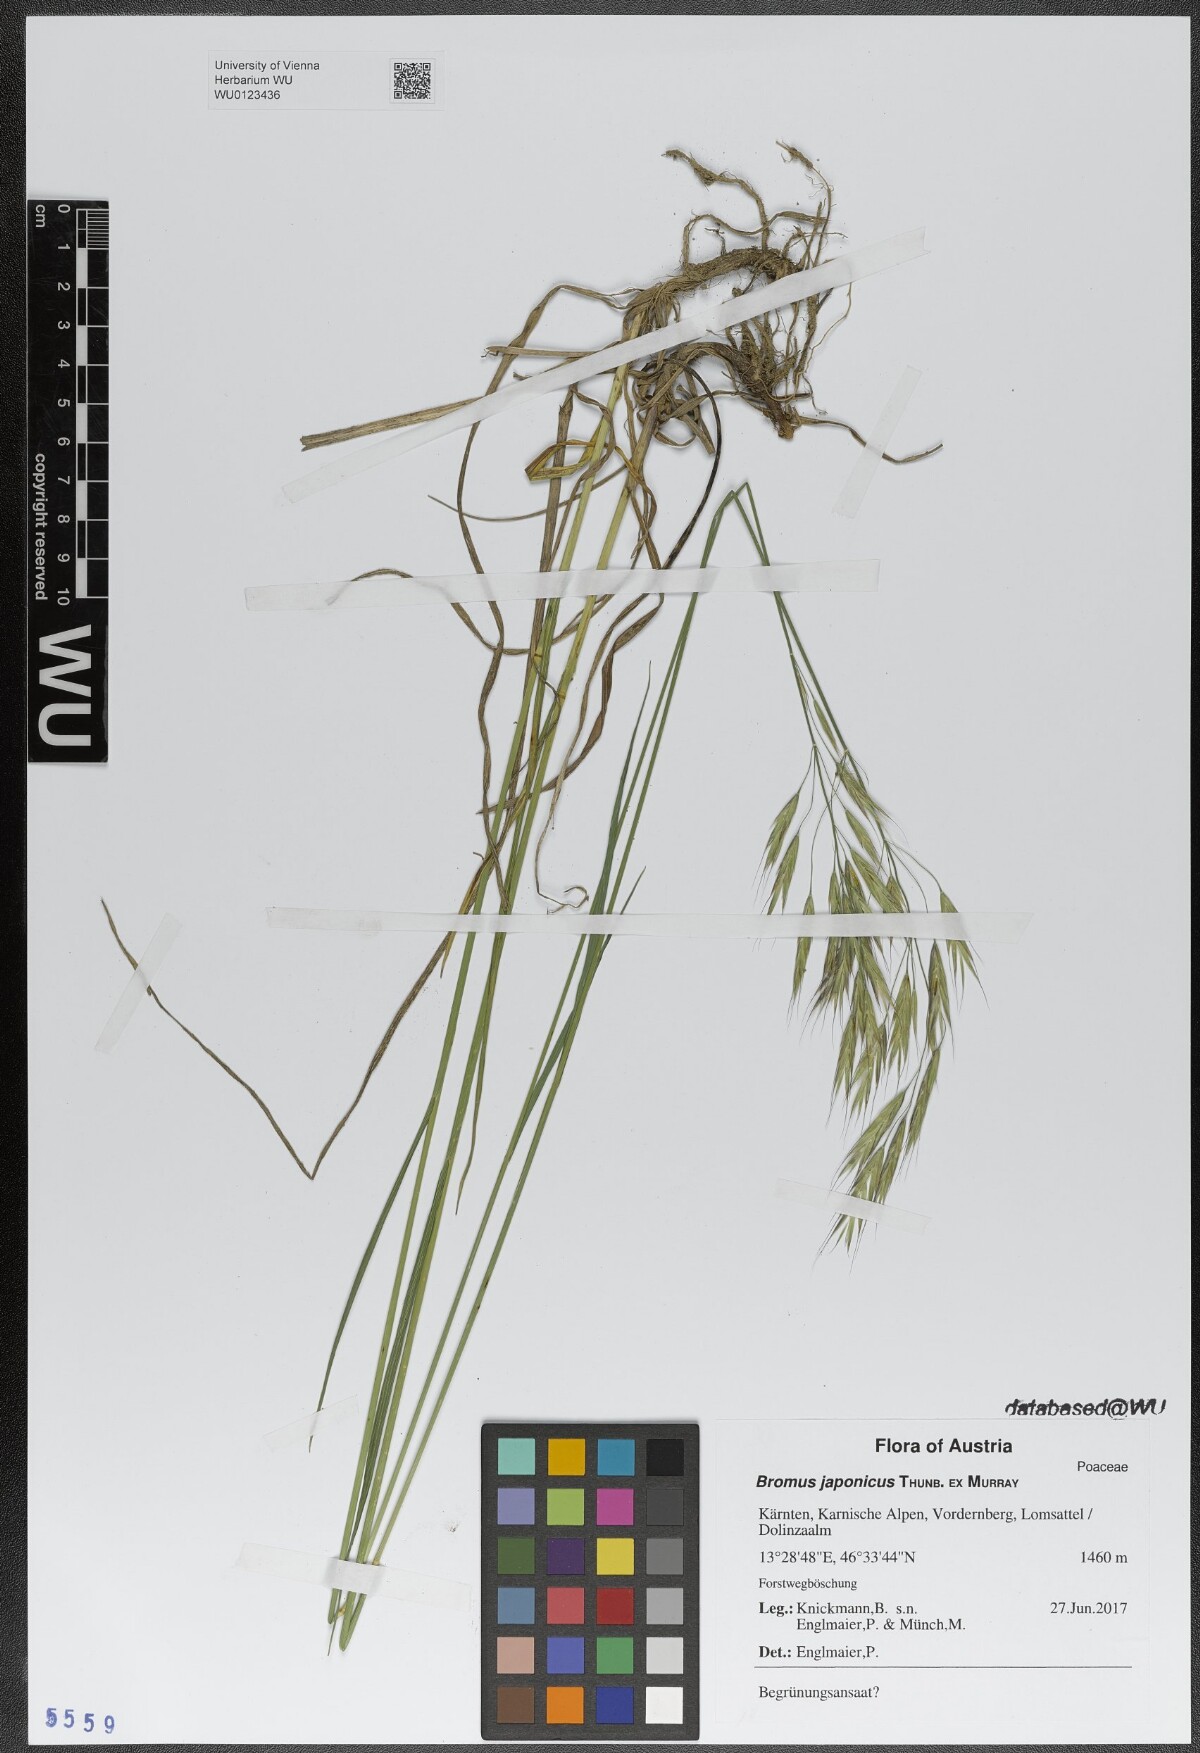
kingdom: Plantae
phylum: Tracheophyta
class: Liliopsida
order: Poales
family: Poaceae
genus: Bromus
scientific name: Bromus japonicus
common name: Japanese brome
